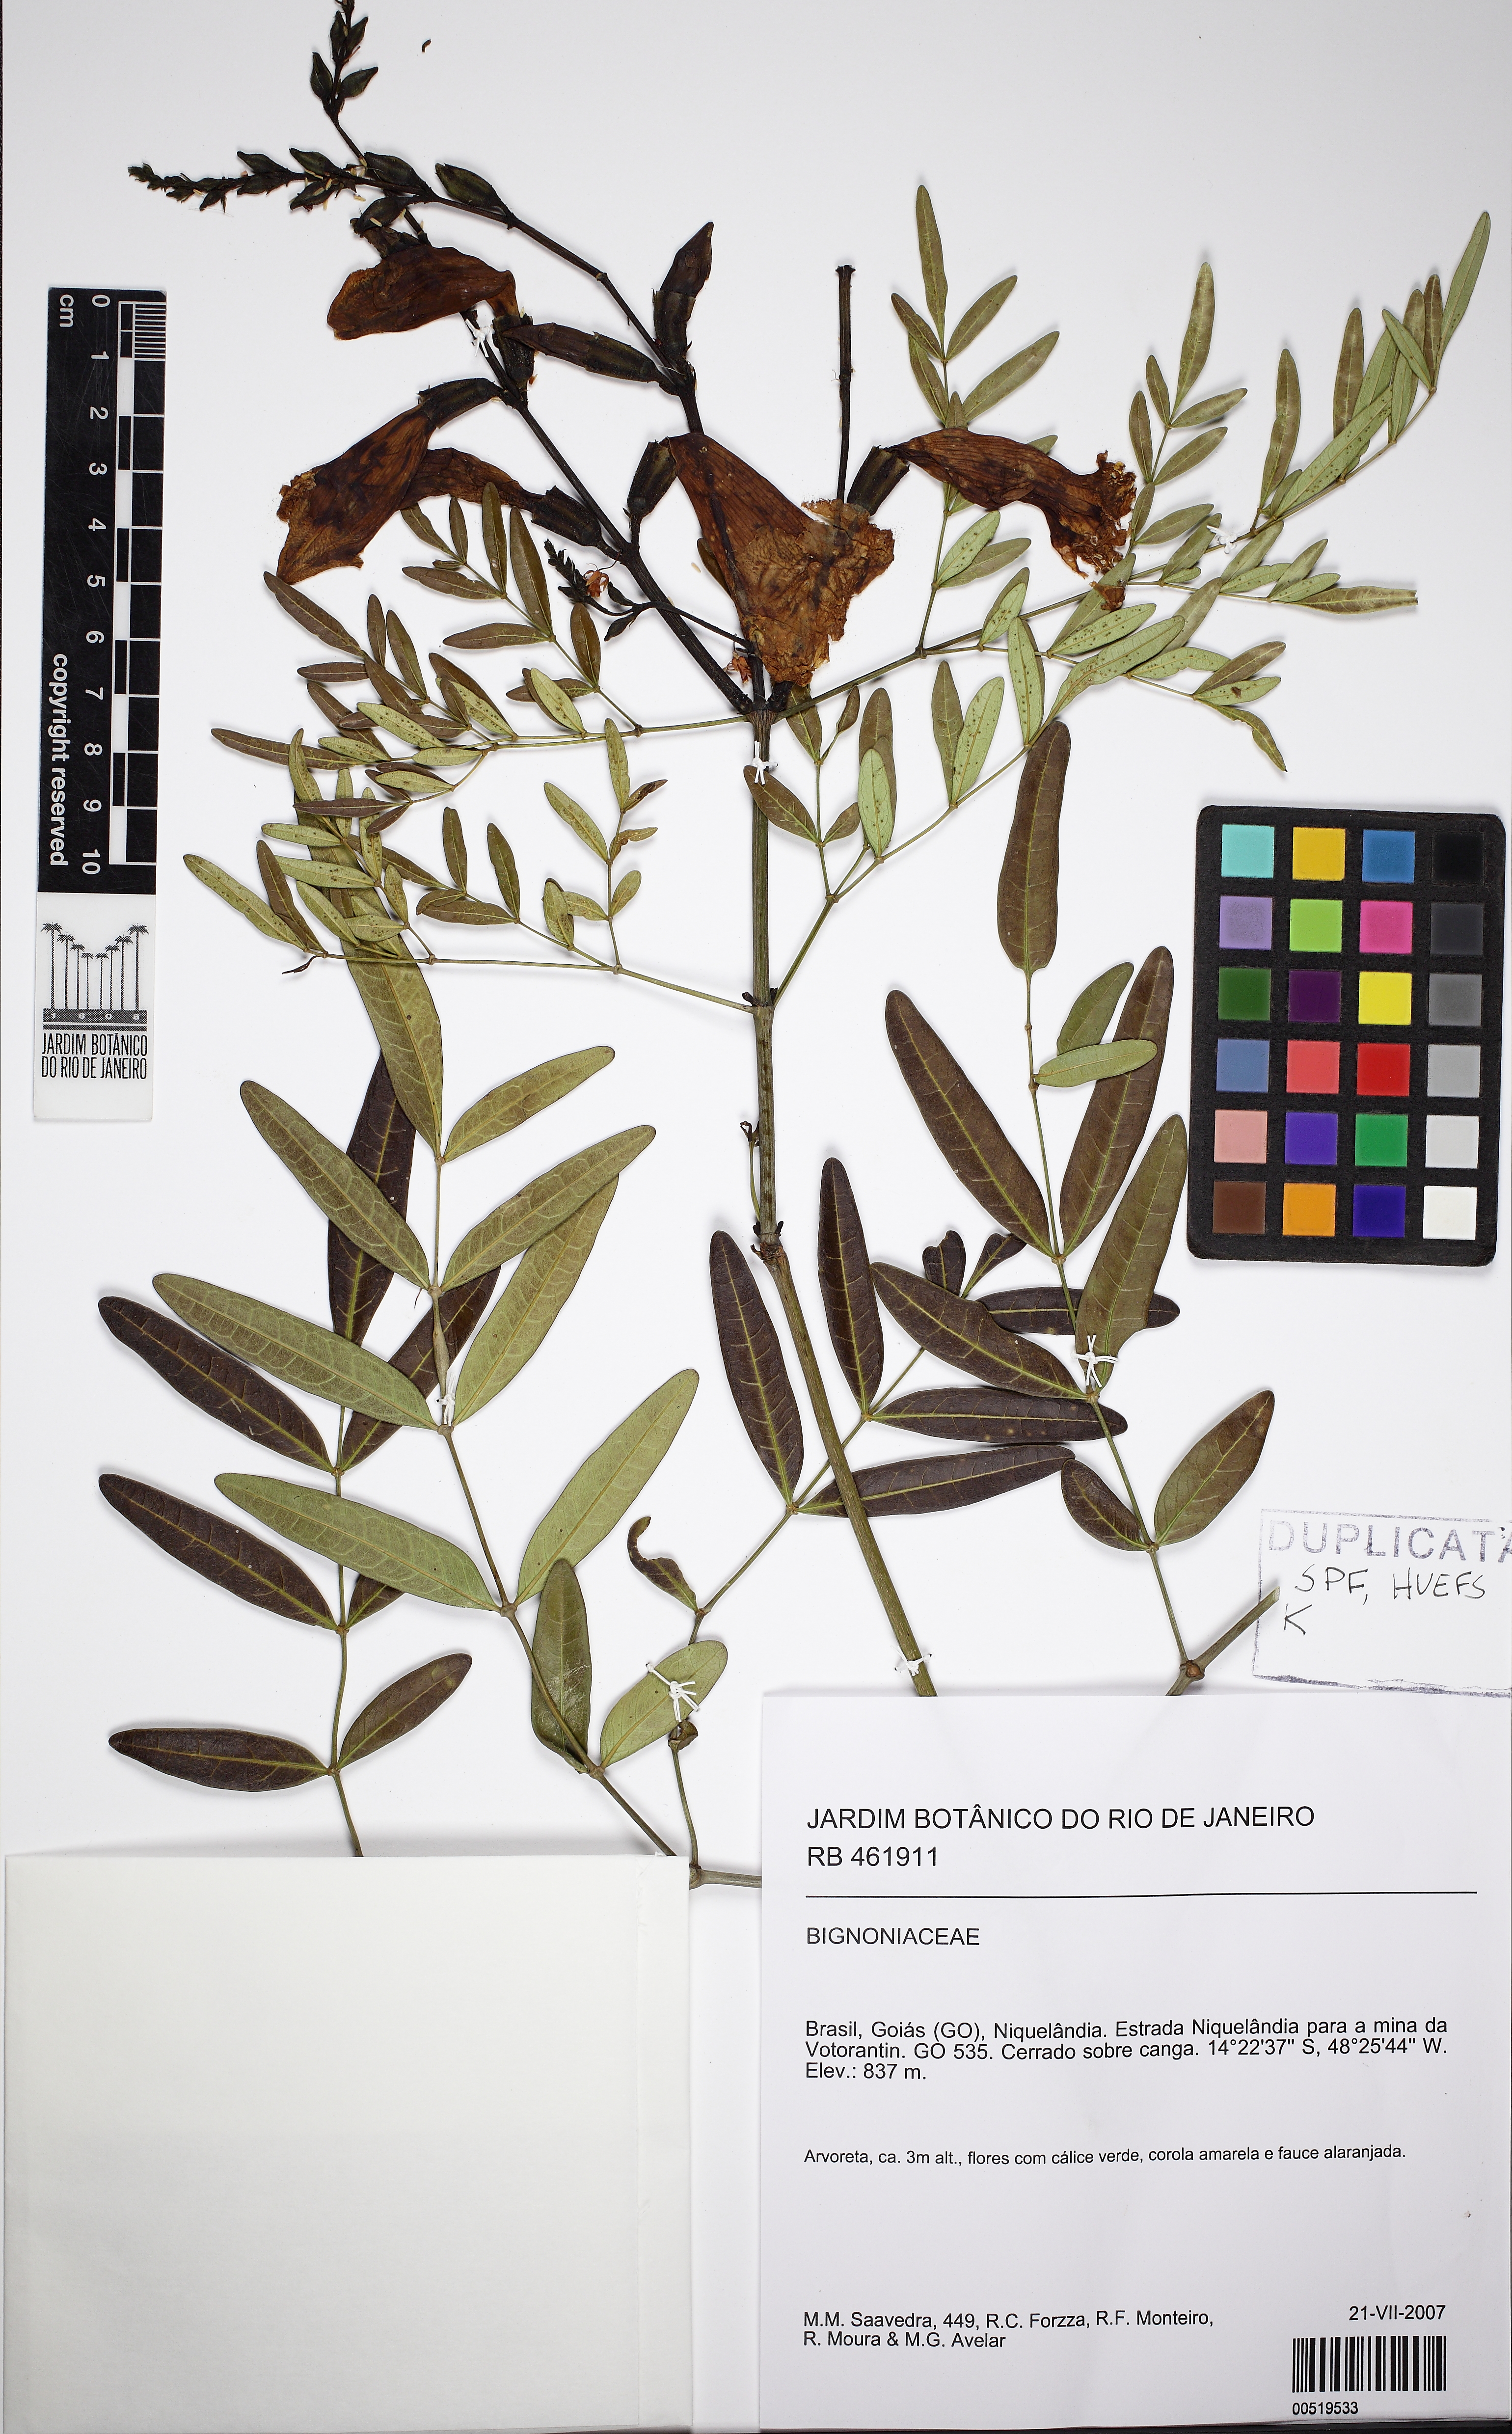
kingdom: Plantae
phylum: Tracheophyta
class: Magnoliopsida
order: Lamiales
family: Bignoniaceae
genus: Adenocalymma
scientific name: Adenocalymma nodosum
